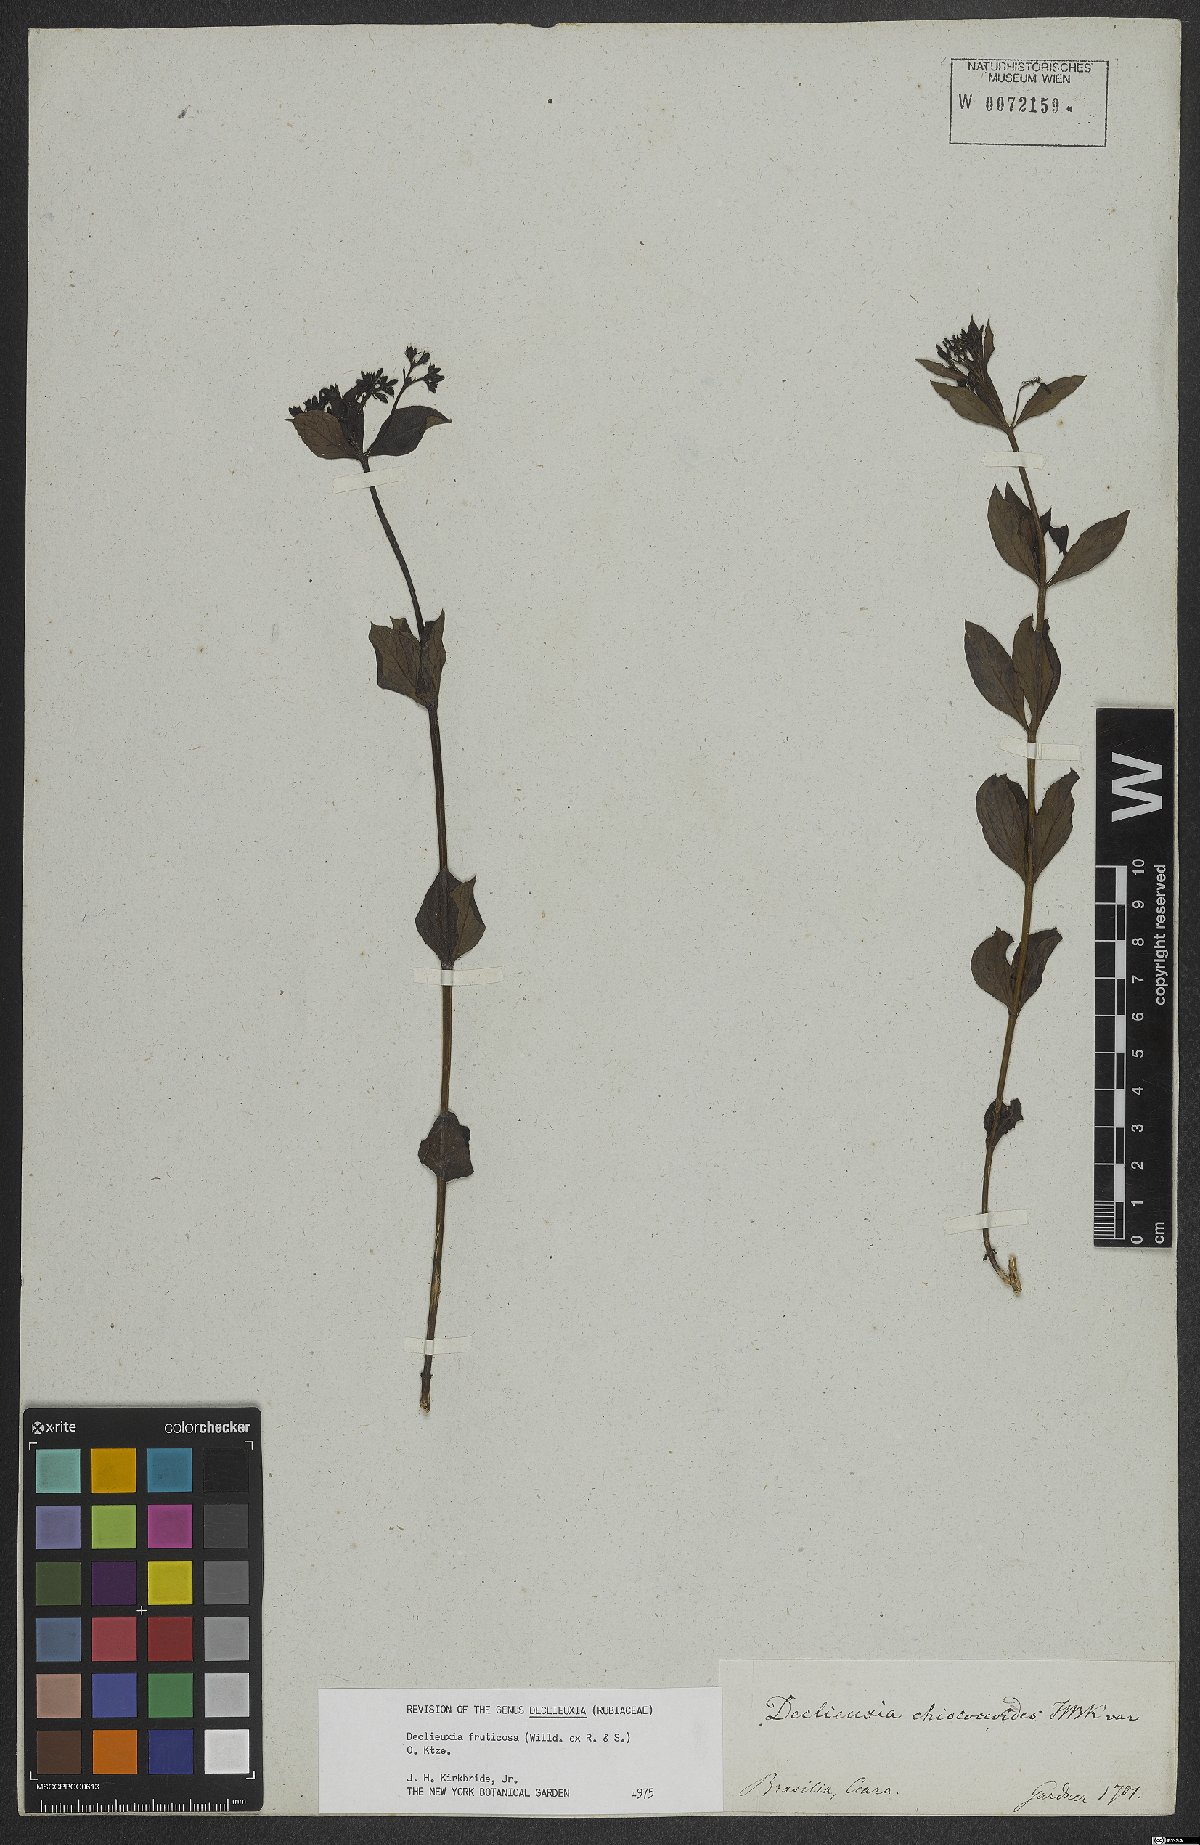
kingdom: Plantae
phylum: Tracheophyta
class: Magnoliopsida
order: Gentianales
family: Rubiaceae
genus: Declieuxia
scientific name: Declieuxia fruticosa
